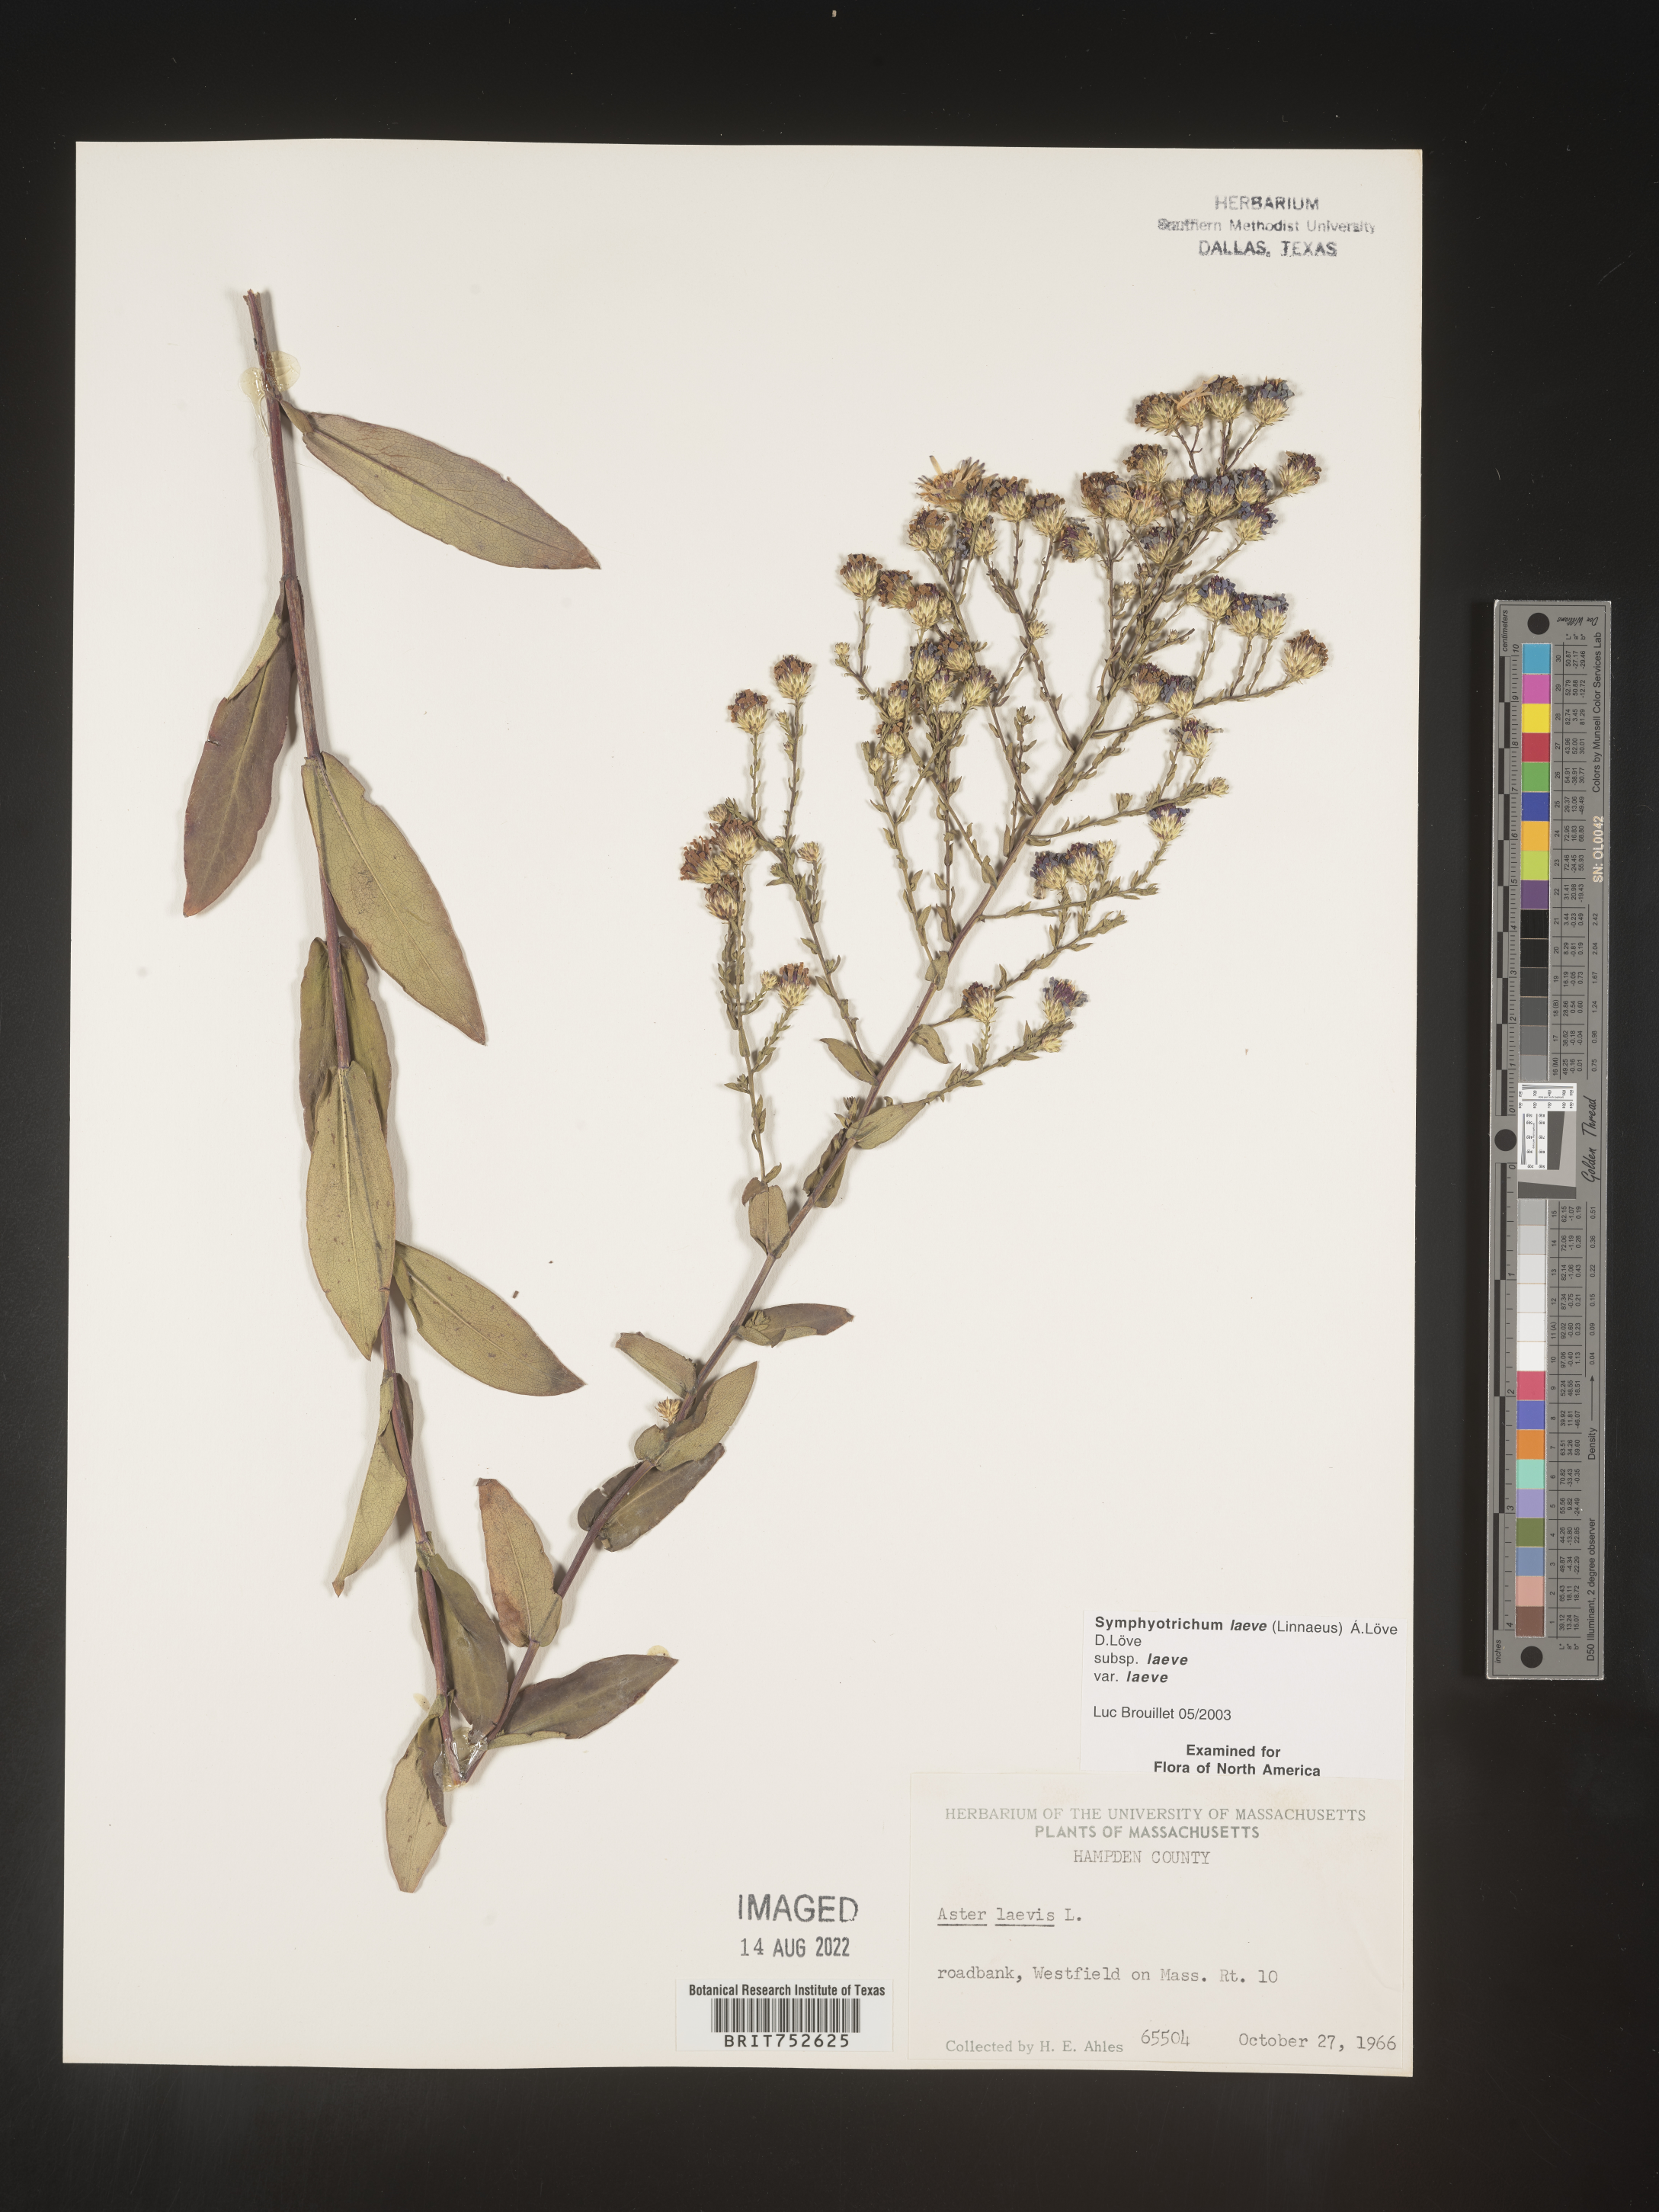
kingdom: Plantae
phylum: Tracheophyta
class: Magnoliopsida
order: Asterales
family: Asteraceae
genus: Symphyotrichum
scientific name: Symphyotrichum laeve
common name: Glaucous aster
